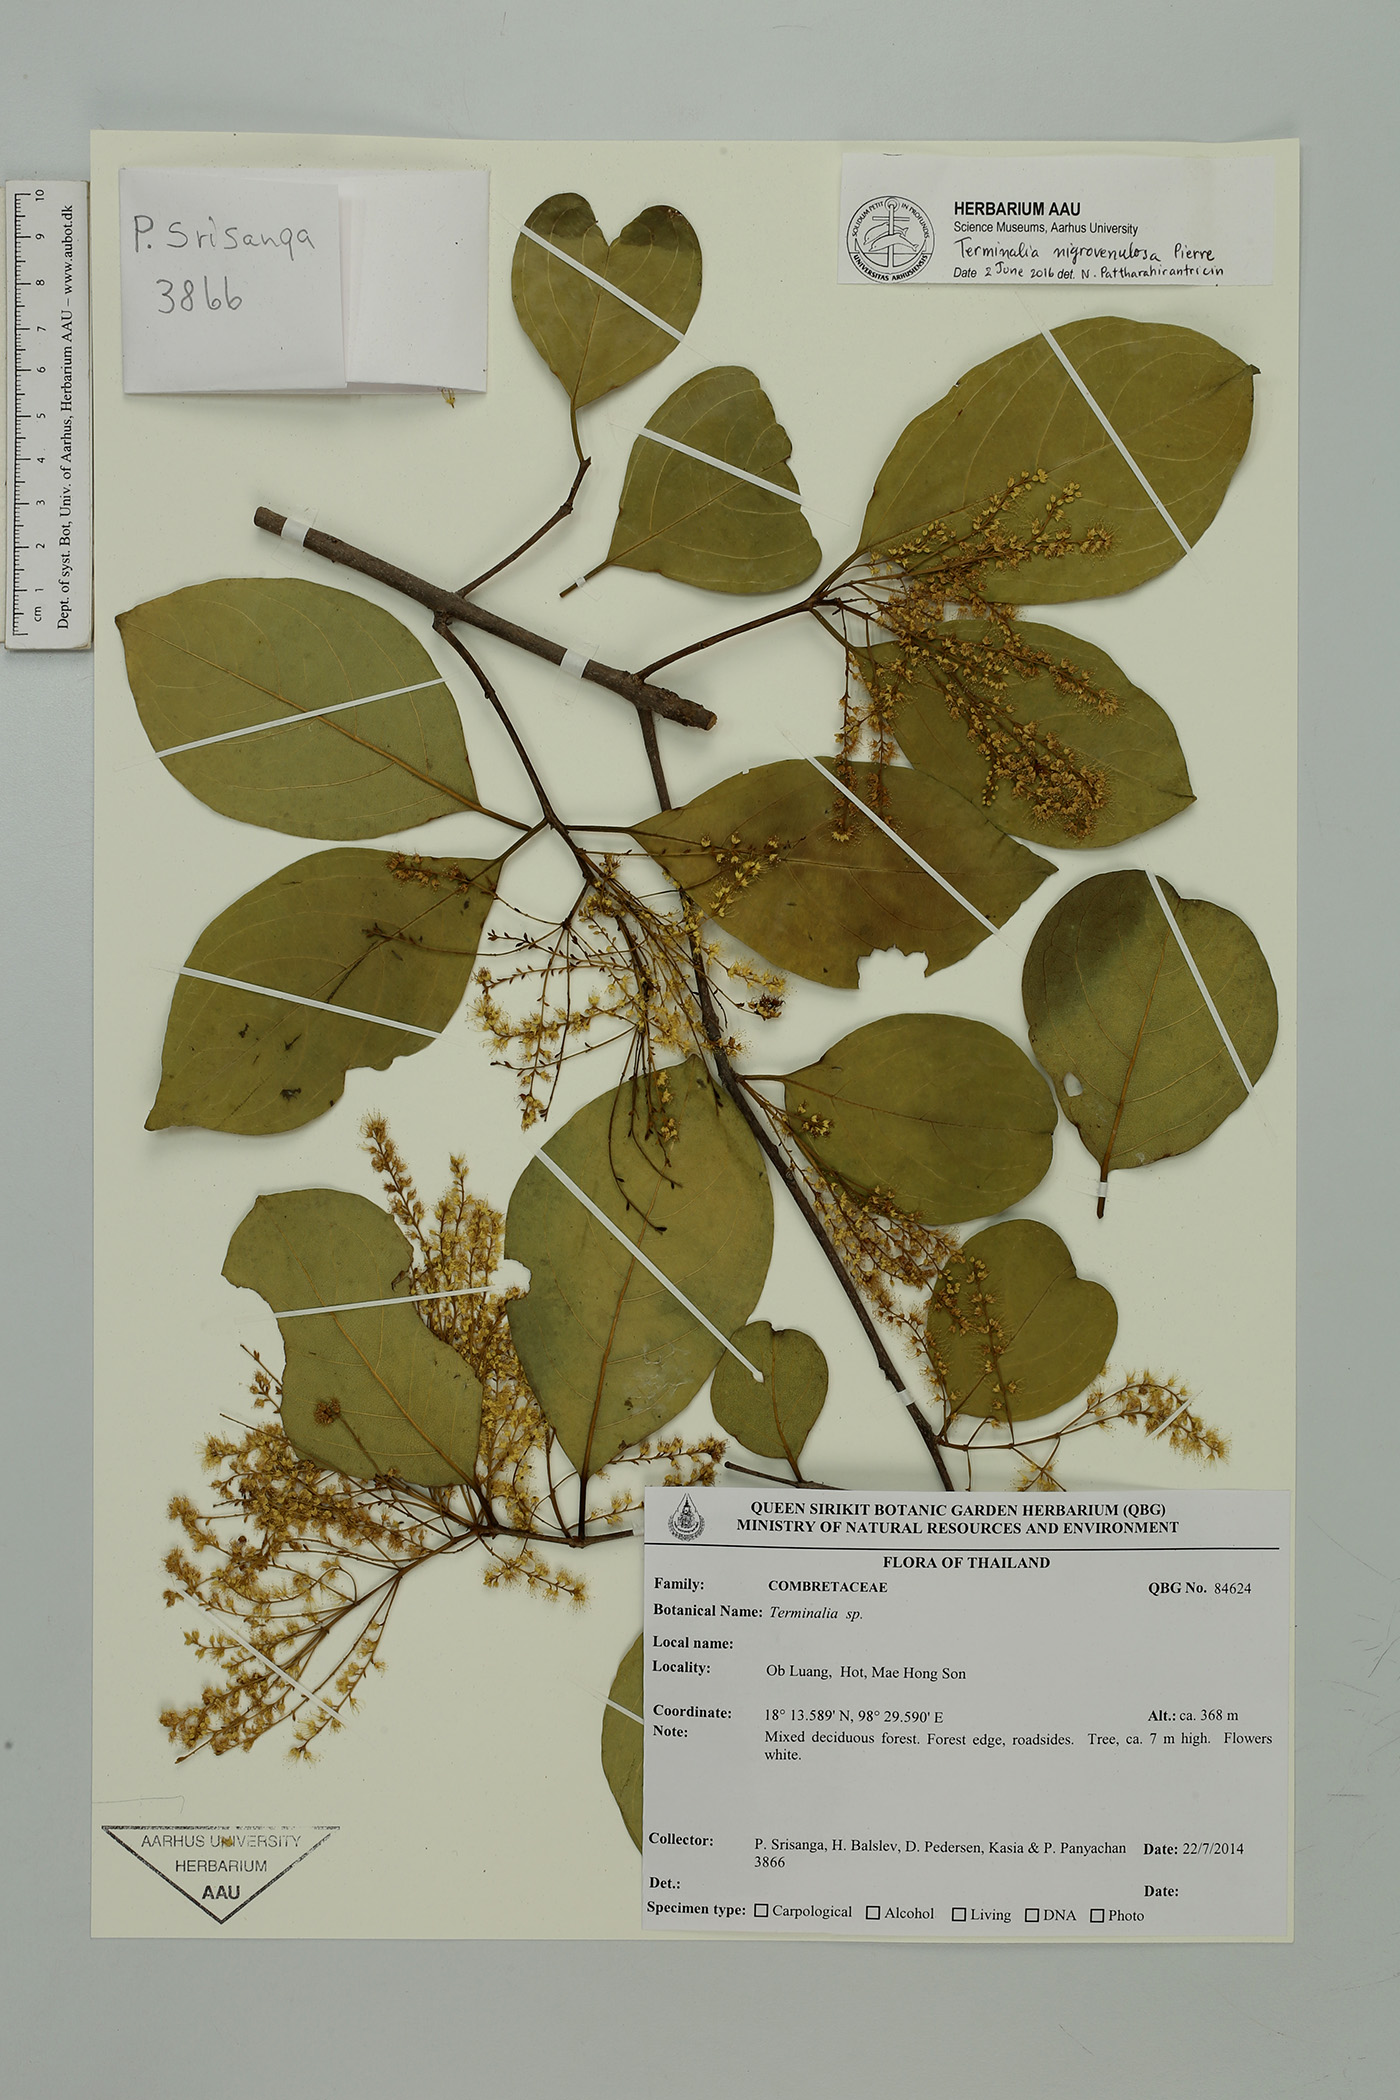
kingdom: Plantae
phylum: Tracheophyta
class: Magnoliopsida
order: Myrtales
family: Combretaceae
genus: Terminalia
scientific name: Terminalia triptera
